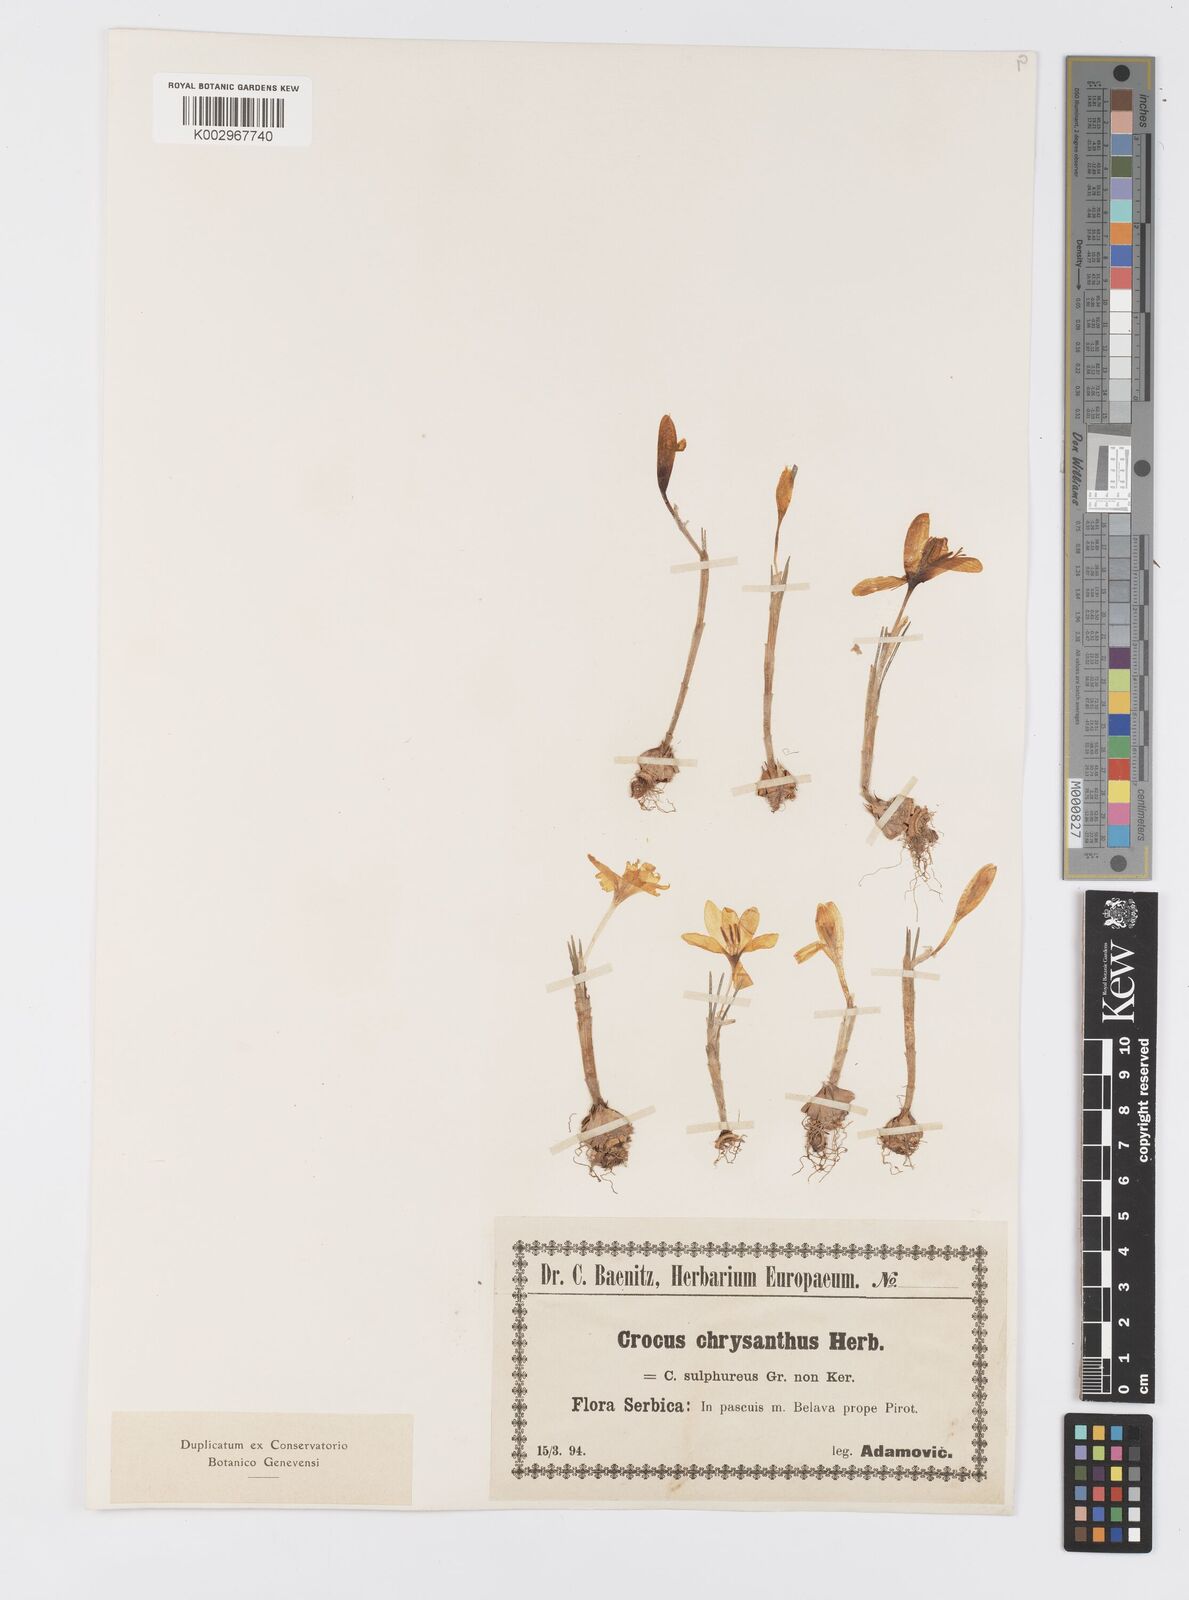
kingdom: Plantae
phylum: Tracheophyta
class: Liliopsida
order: Asparagales
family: Iridaceae
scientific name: Iridaceae
